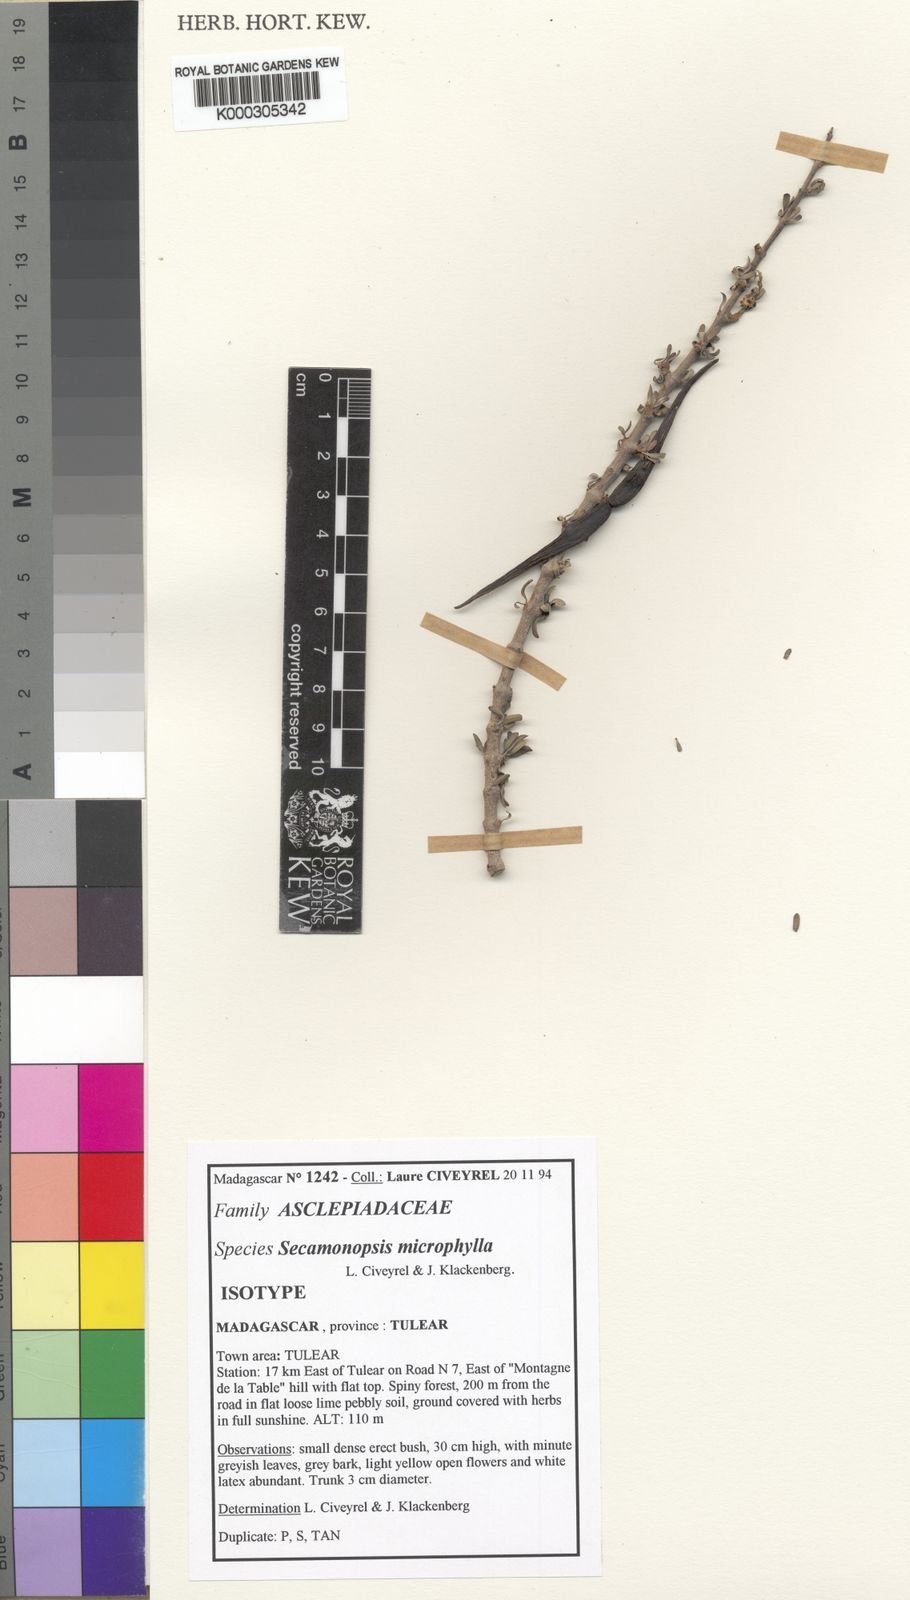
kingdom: Plantae
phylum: Tracheophyta
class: Magnoliopsida
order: Gentianales
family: Apocynaceae
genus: Secamonopsis
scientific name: Secamonopsis microphylla
